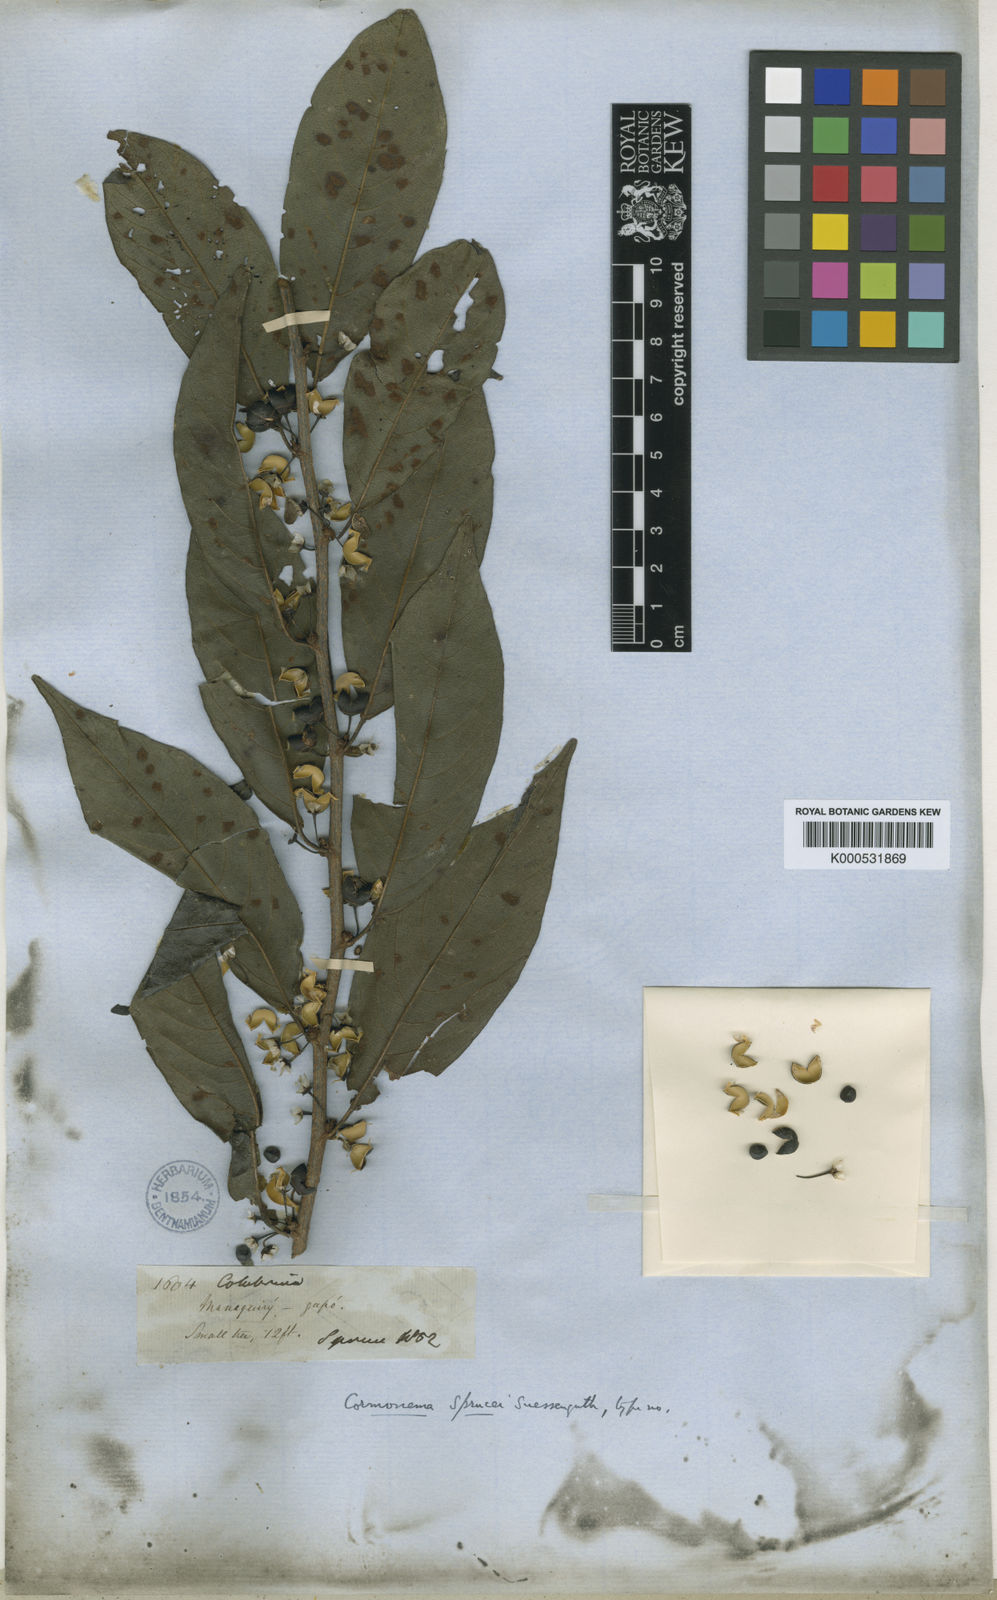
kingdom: Plantae
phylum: Tracheophyta
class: Magnoliopsida
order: Rosales
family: Rhamnaceae
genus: Colubrina
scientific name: Colubrina retusa
